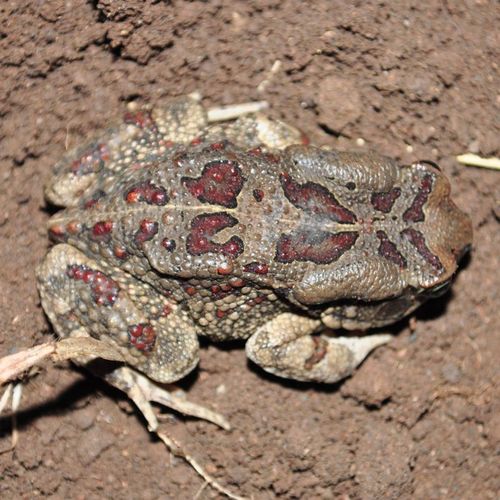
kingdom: Animalia
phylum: Chordata
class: Amphibia
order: Anura
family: Bufonidae
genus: Sclerophrys
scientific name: Sclerophrys garmani
